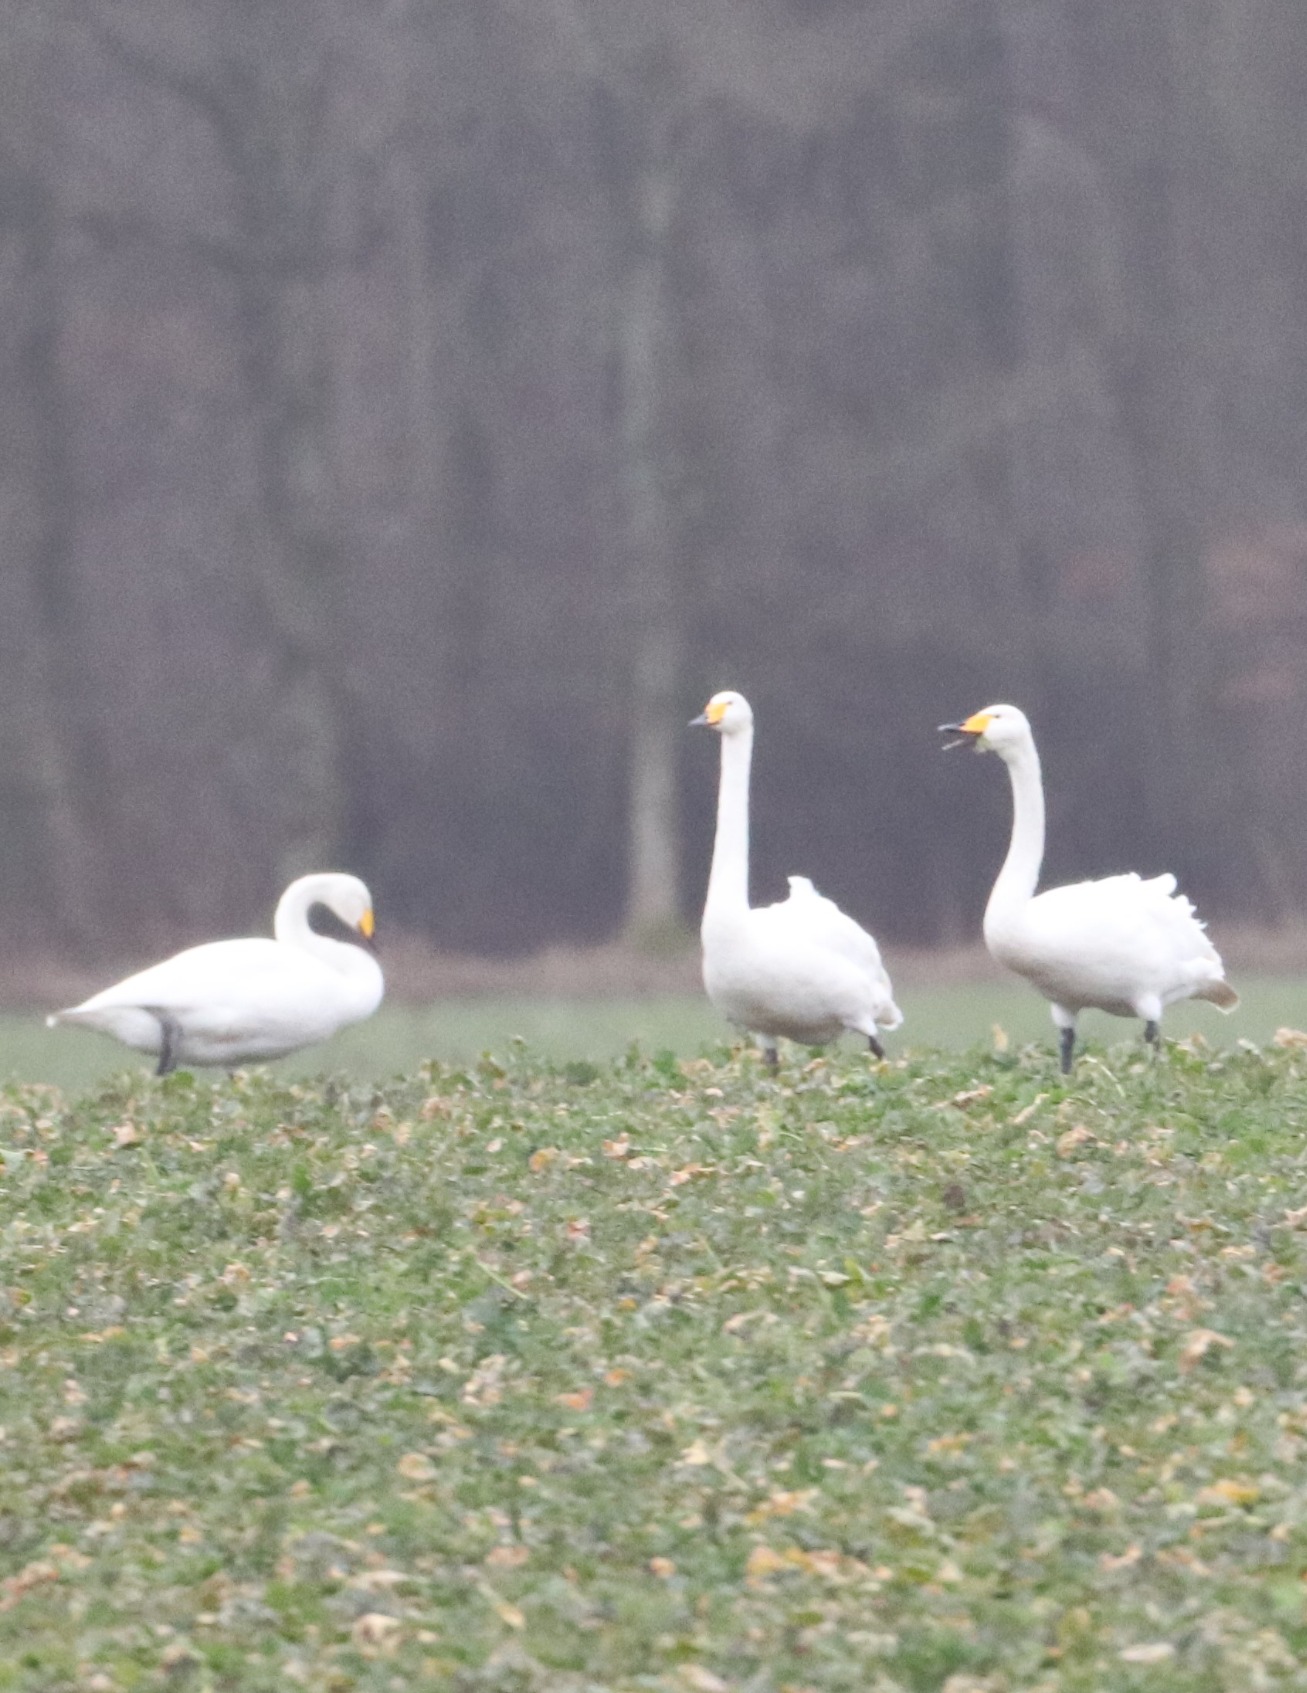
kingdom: Animalia
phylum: Chordata
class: Aves
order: Anseriformes
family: Anatidae
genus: Cygnus
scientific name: Cygnus cygnus
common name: Sangsvane
